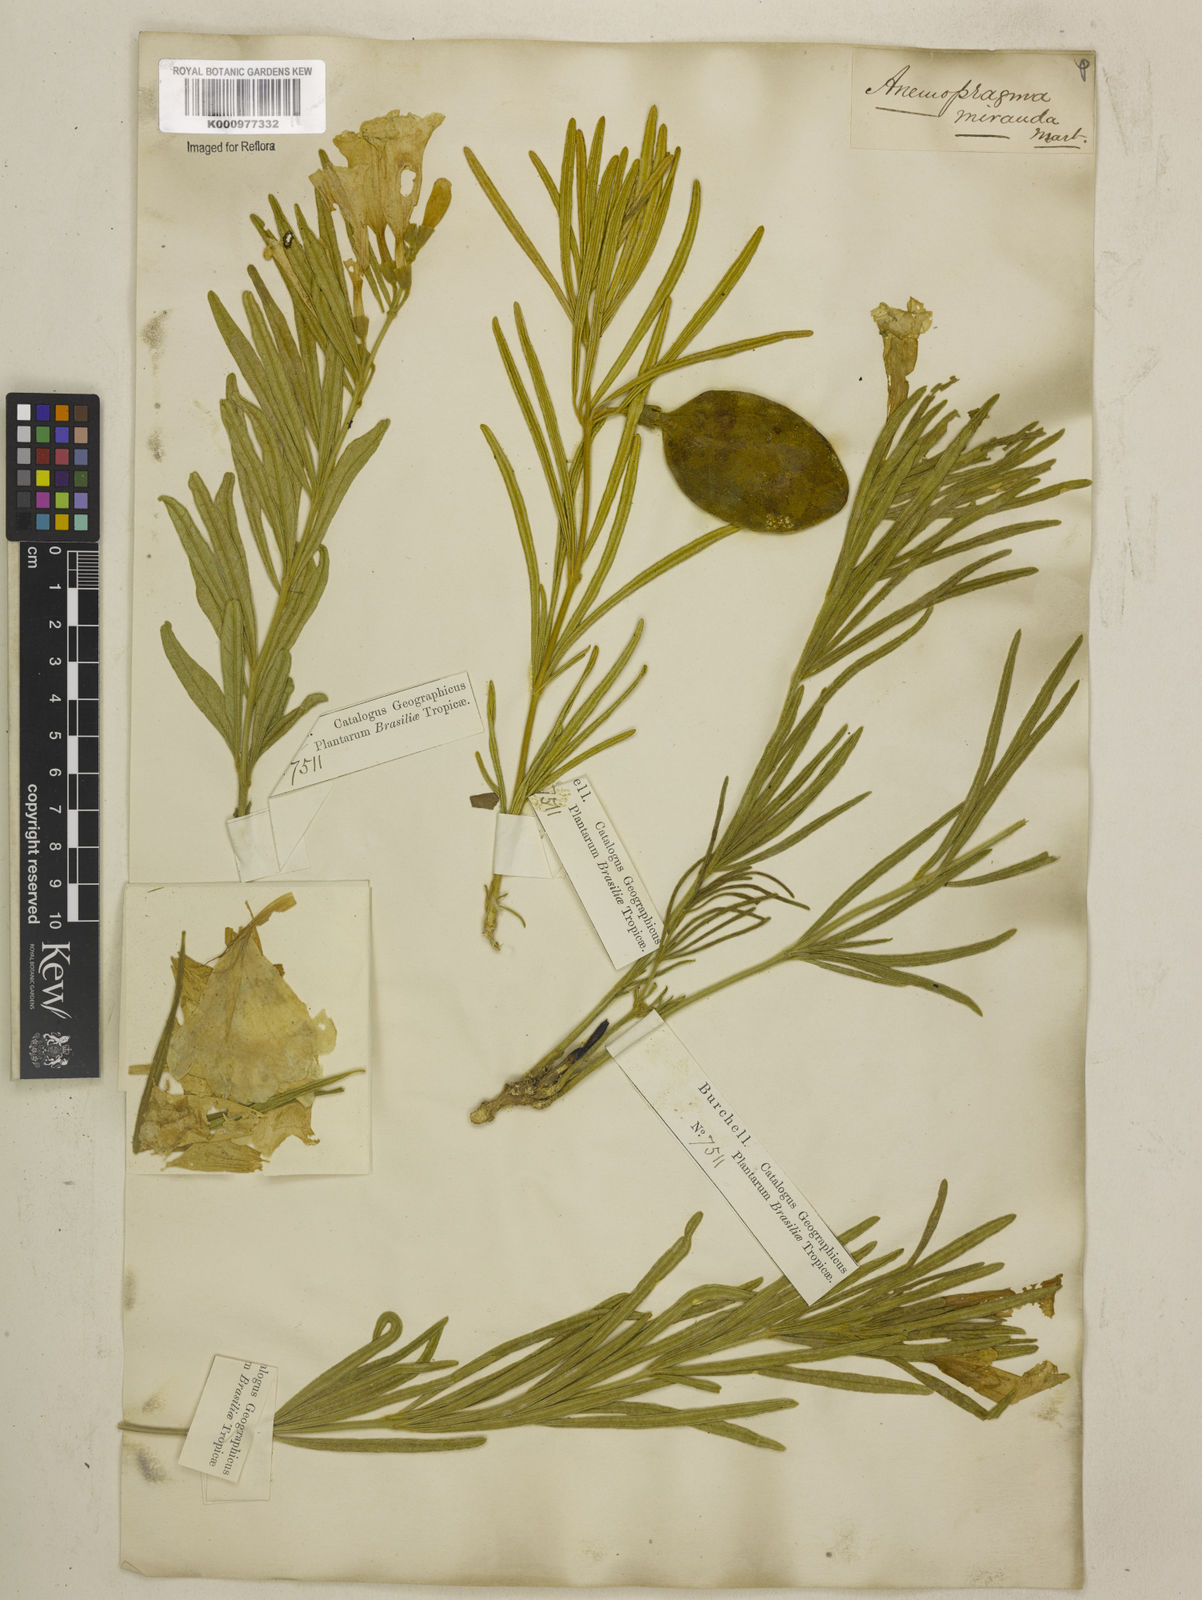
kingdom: Plantae
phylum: Tracheophyta
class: Magnoliopsida
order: Lamiales
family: Bignoniaceae
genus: Anemopaegma
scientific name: Anemopaegma arvense
